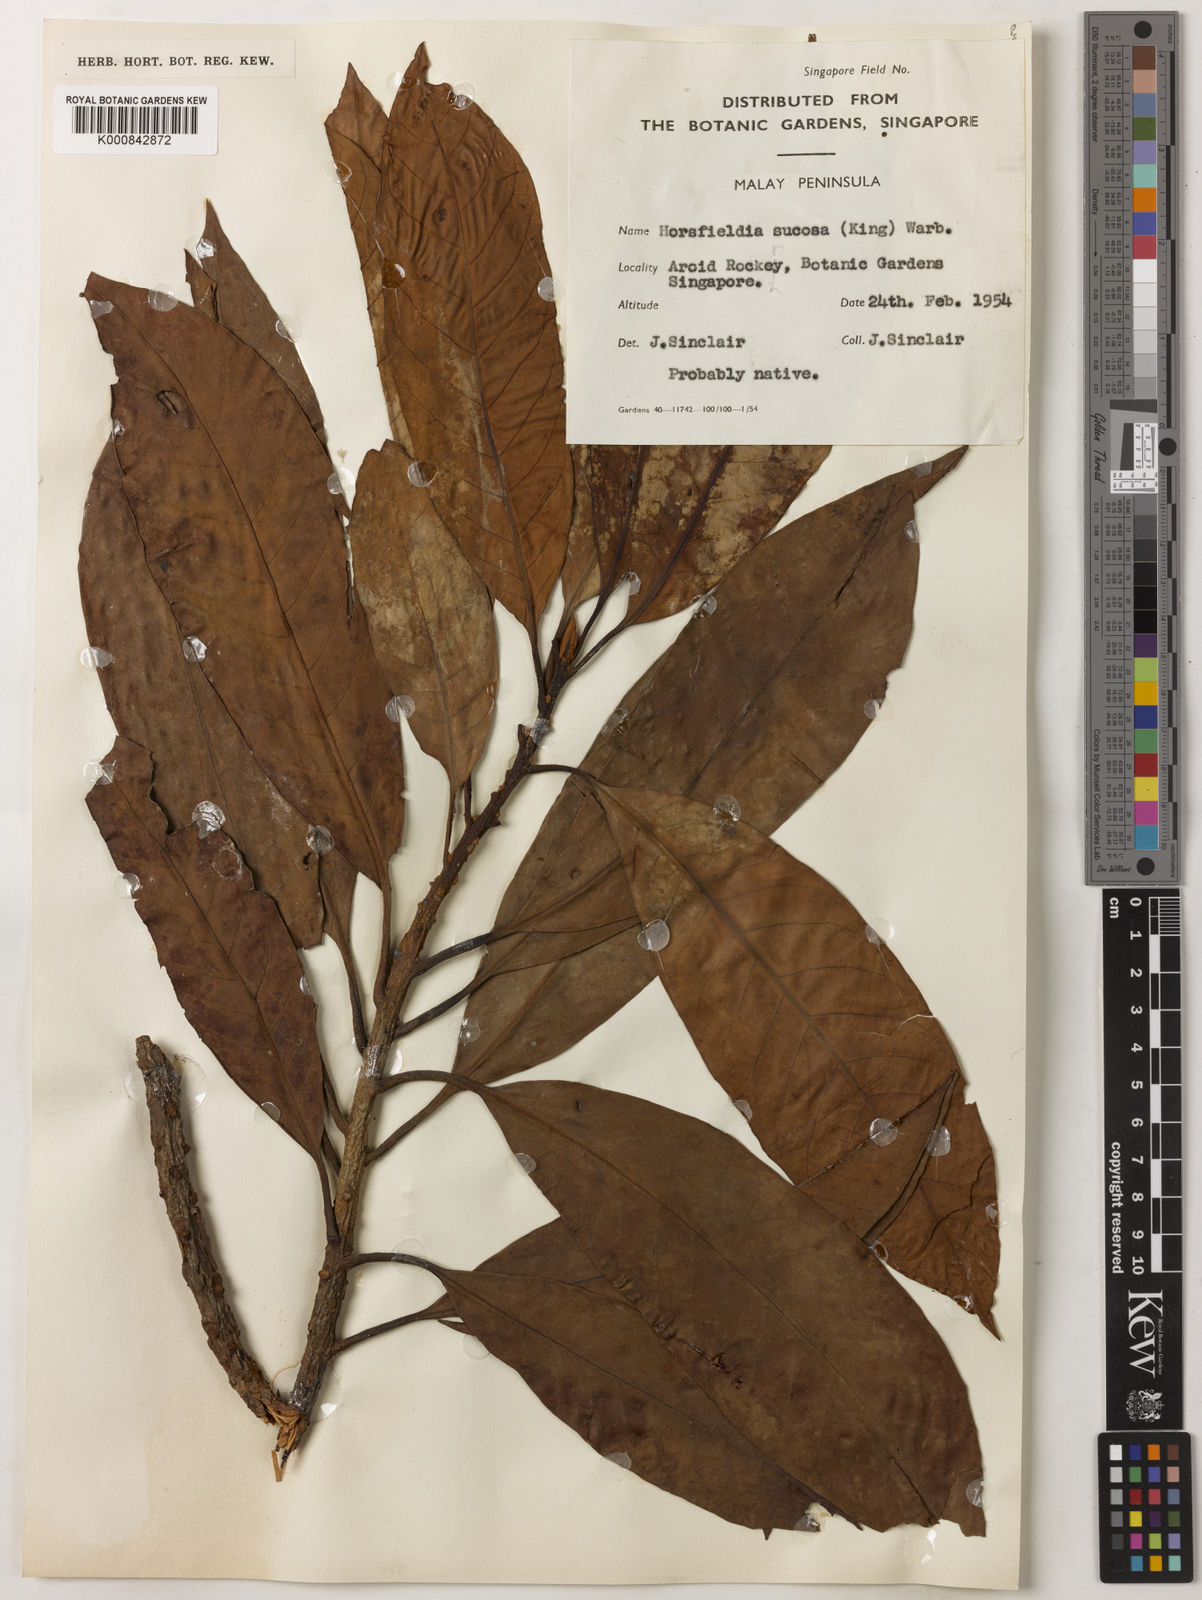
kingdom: Plantae
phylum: Tracheophyta
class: Magnoliopsida
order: Magnoliales
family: Myristicaceae
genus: Horsfieldia
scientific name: Horsfieldia sucosa
